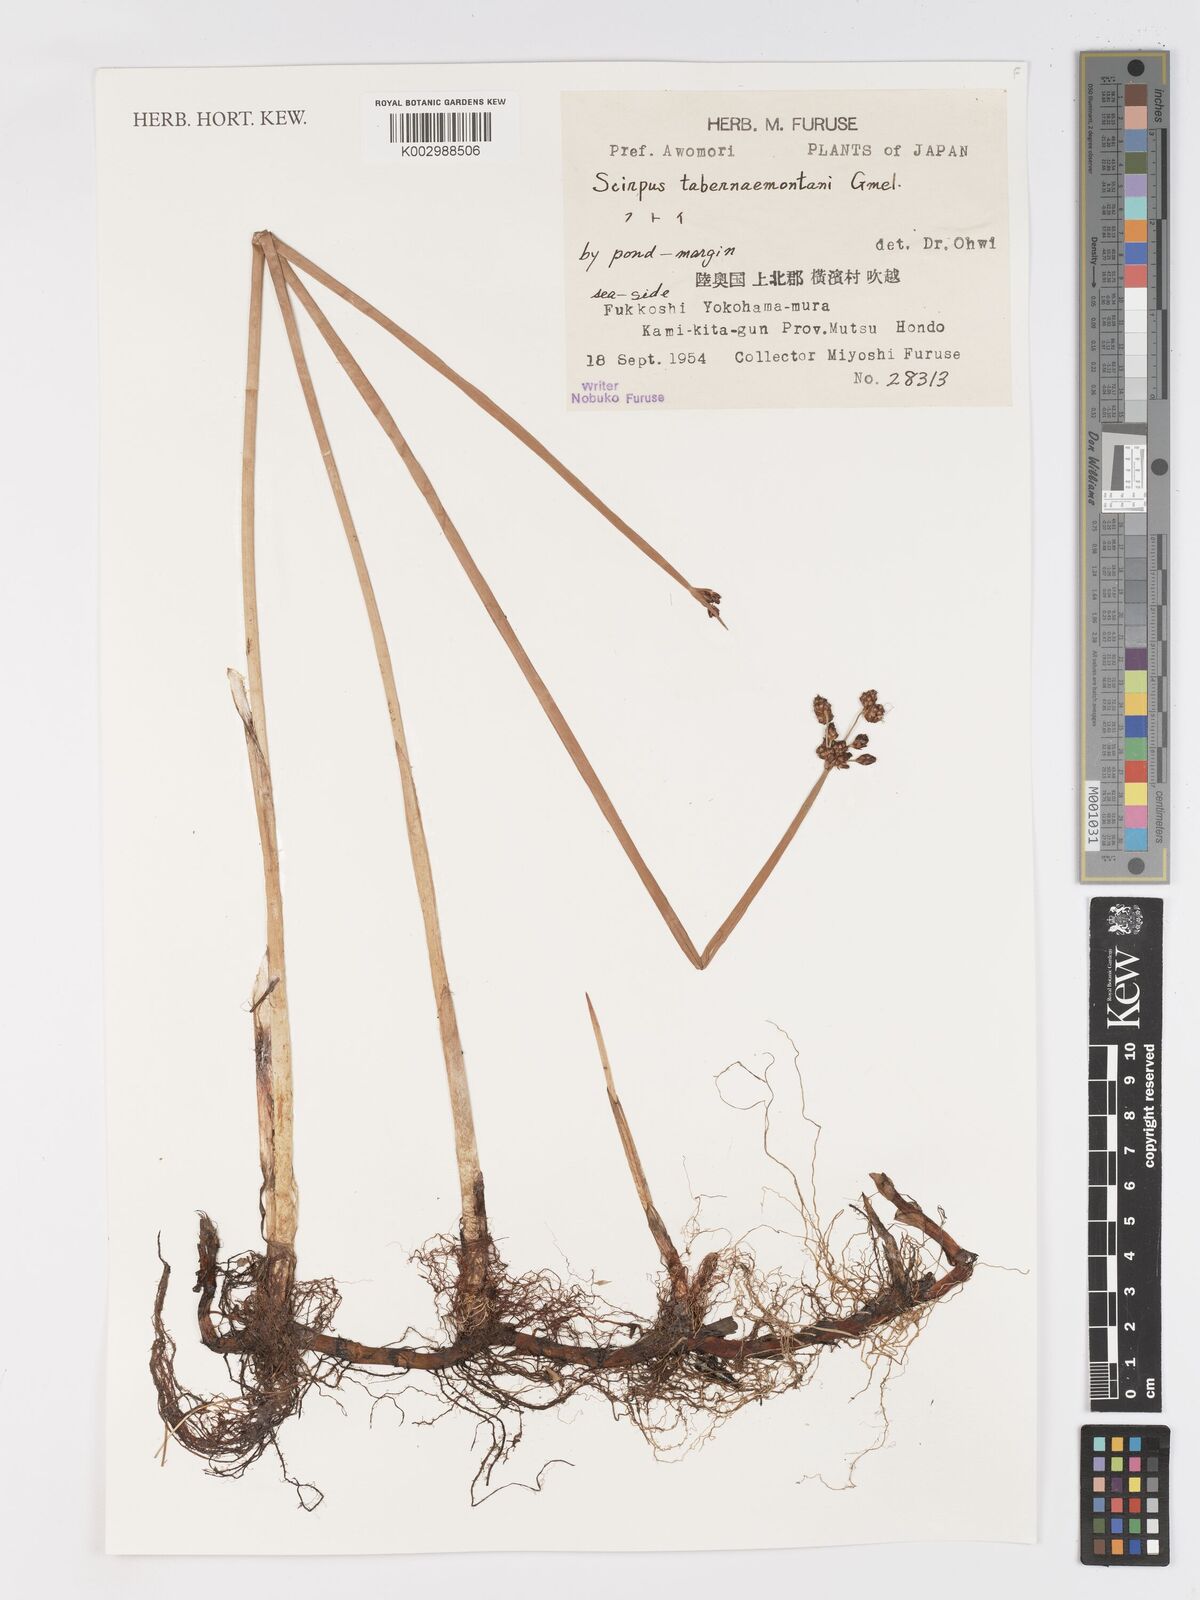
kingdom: Plantae
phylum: Tracheophyta
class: Liliopsida
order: Poales
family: Cyperaceae
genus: Schoenoplectus
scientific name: Schoenoplectus tabernaemontani
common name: Grey club-rush
